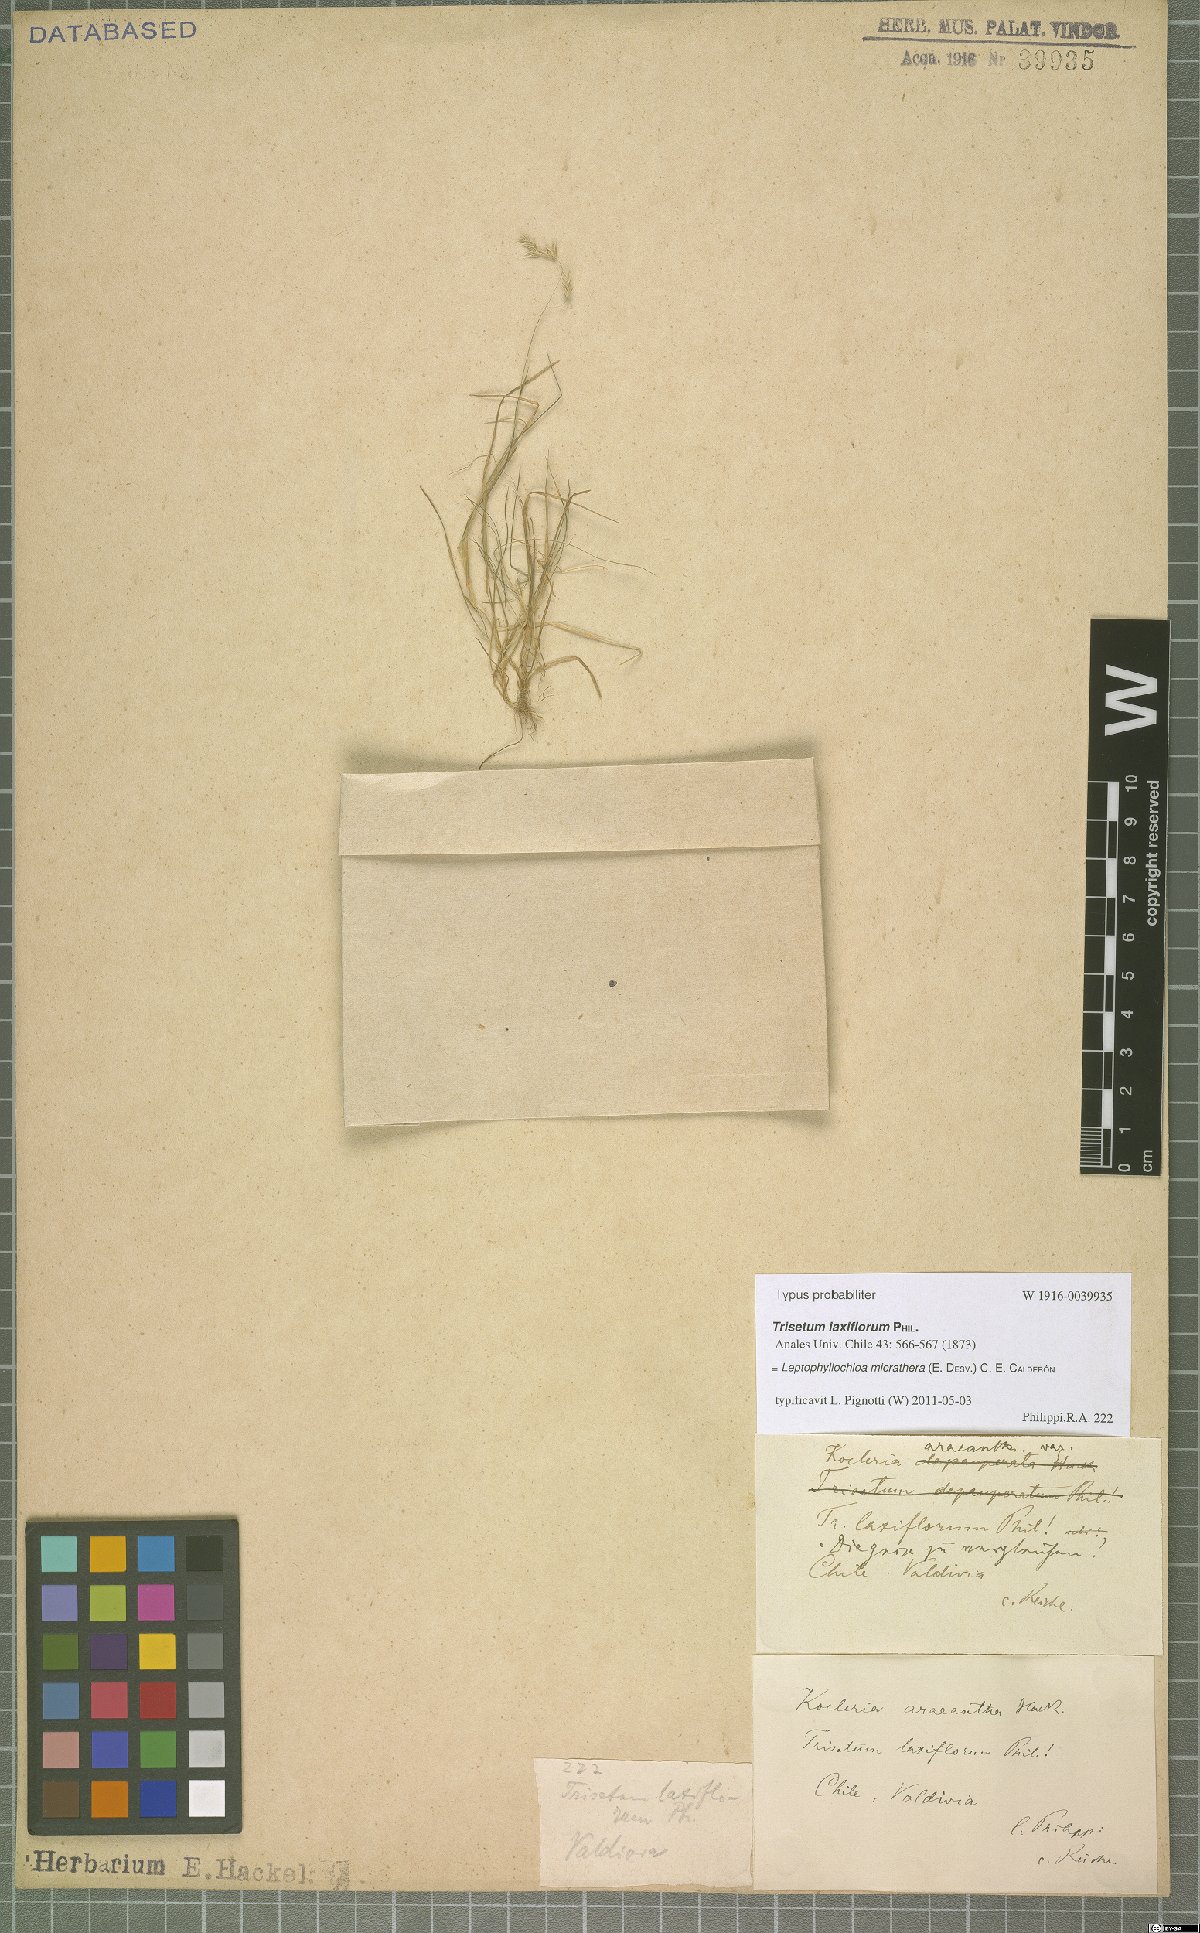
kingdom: Plantae
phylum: Tracheophyta
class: Liliopsida
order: Poales
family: Poaceae
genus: Cinnagrostis
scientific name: Cinnagrostis micrathera
